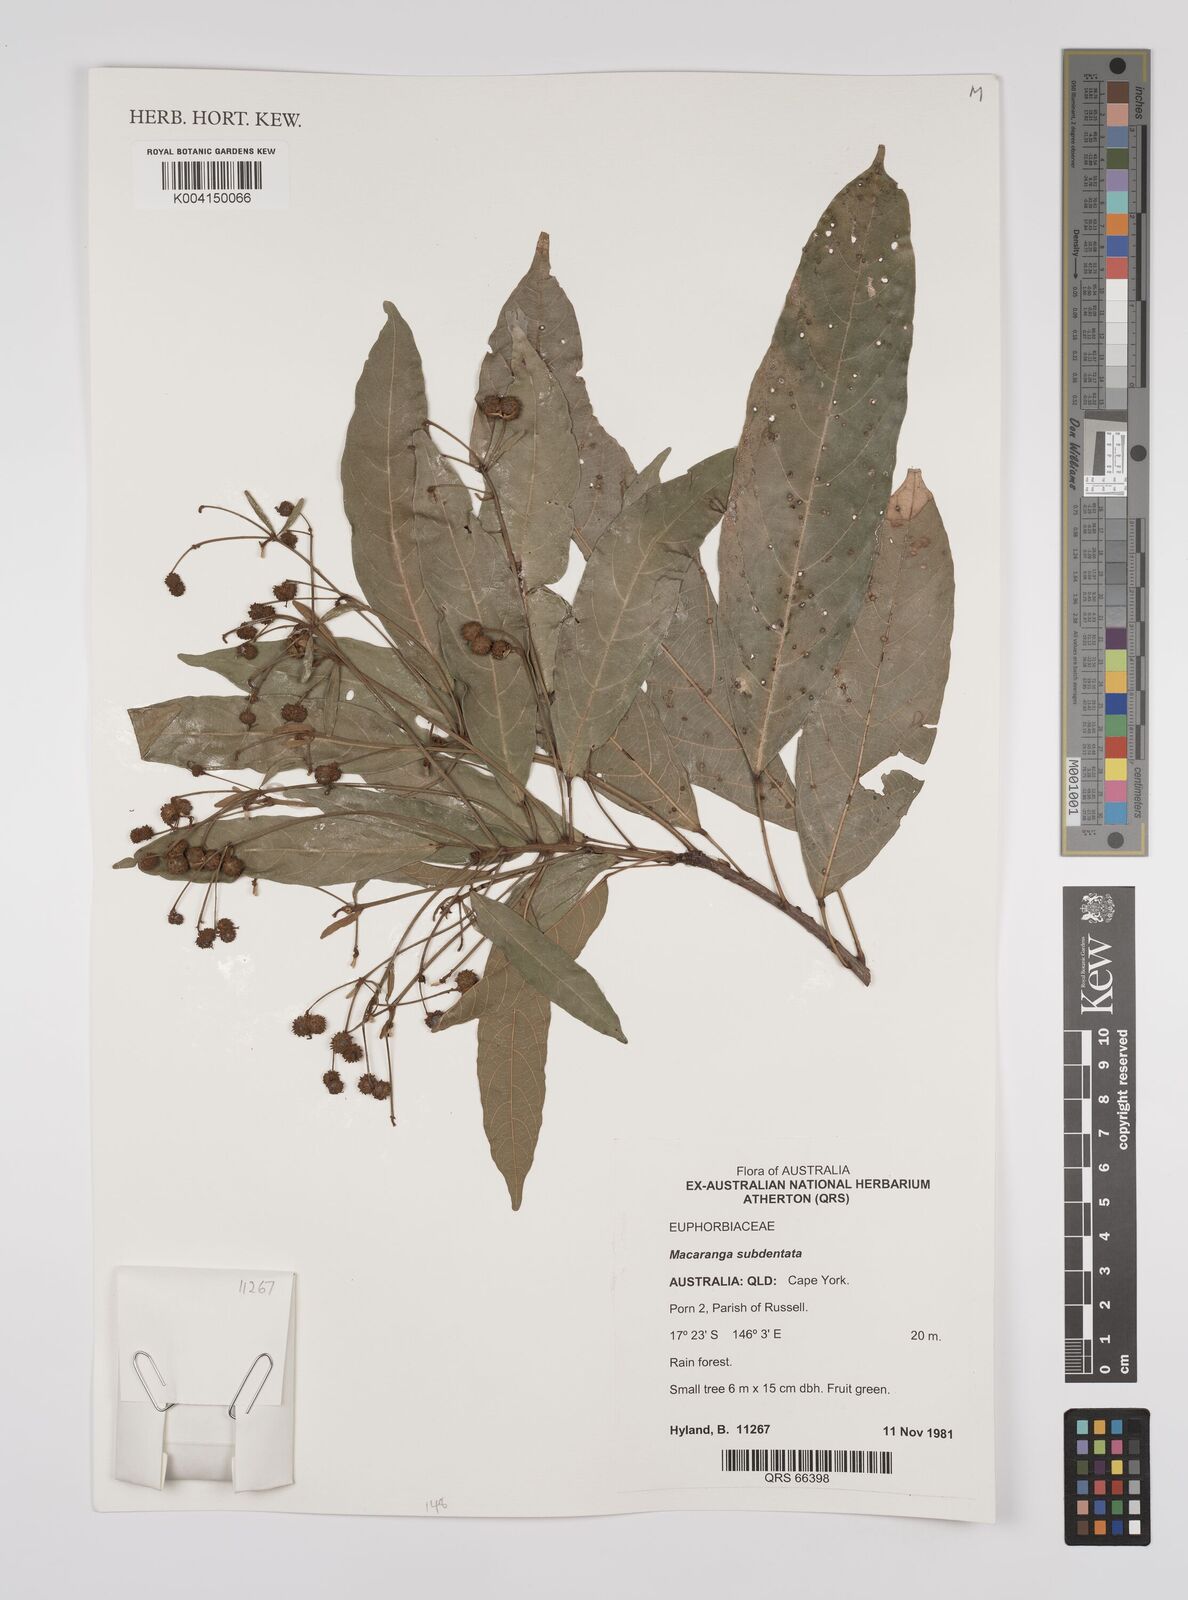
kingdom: Plantae
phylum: Tracheophyta
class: Magnoliopsida
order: Malpighiales
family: Euphorbiaceae
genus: Macaranga
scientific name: Macaranga subdentata
